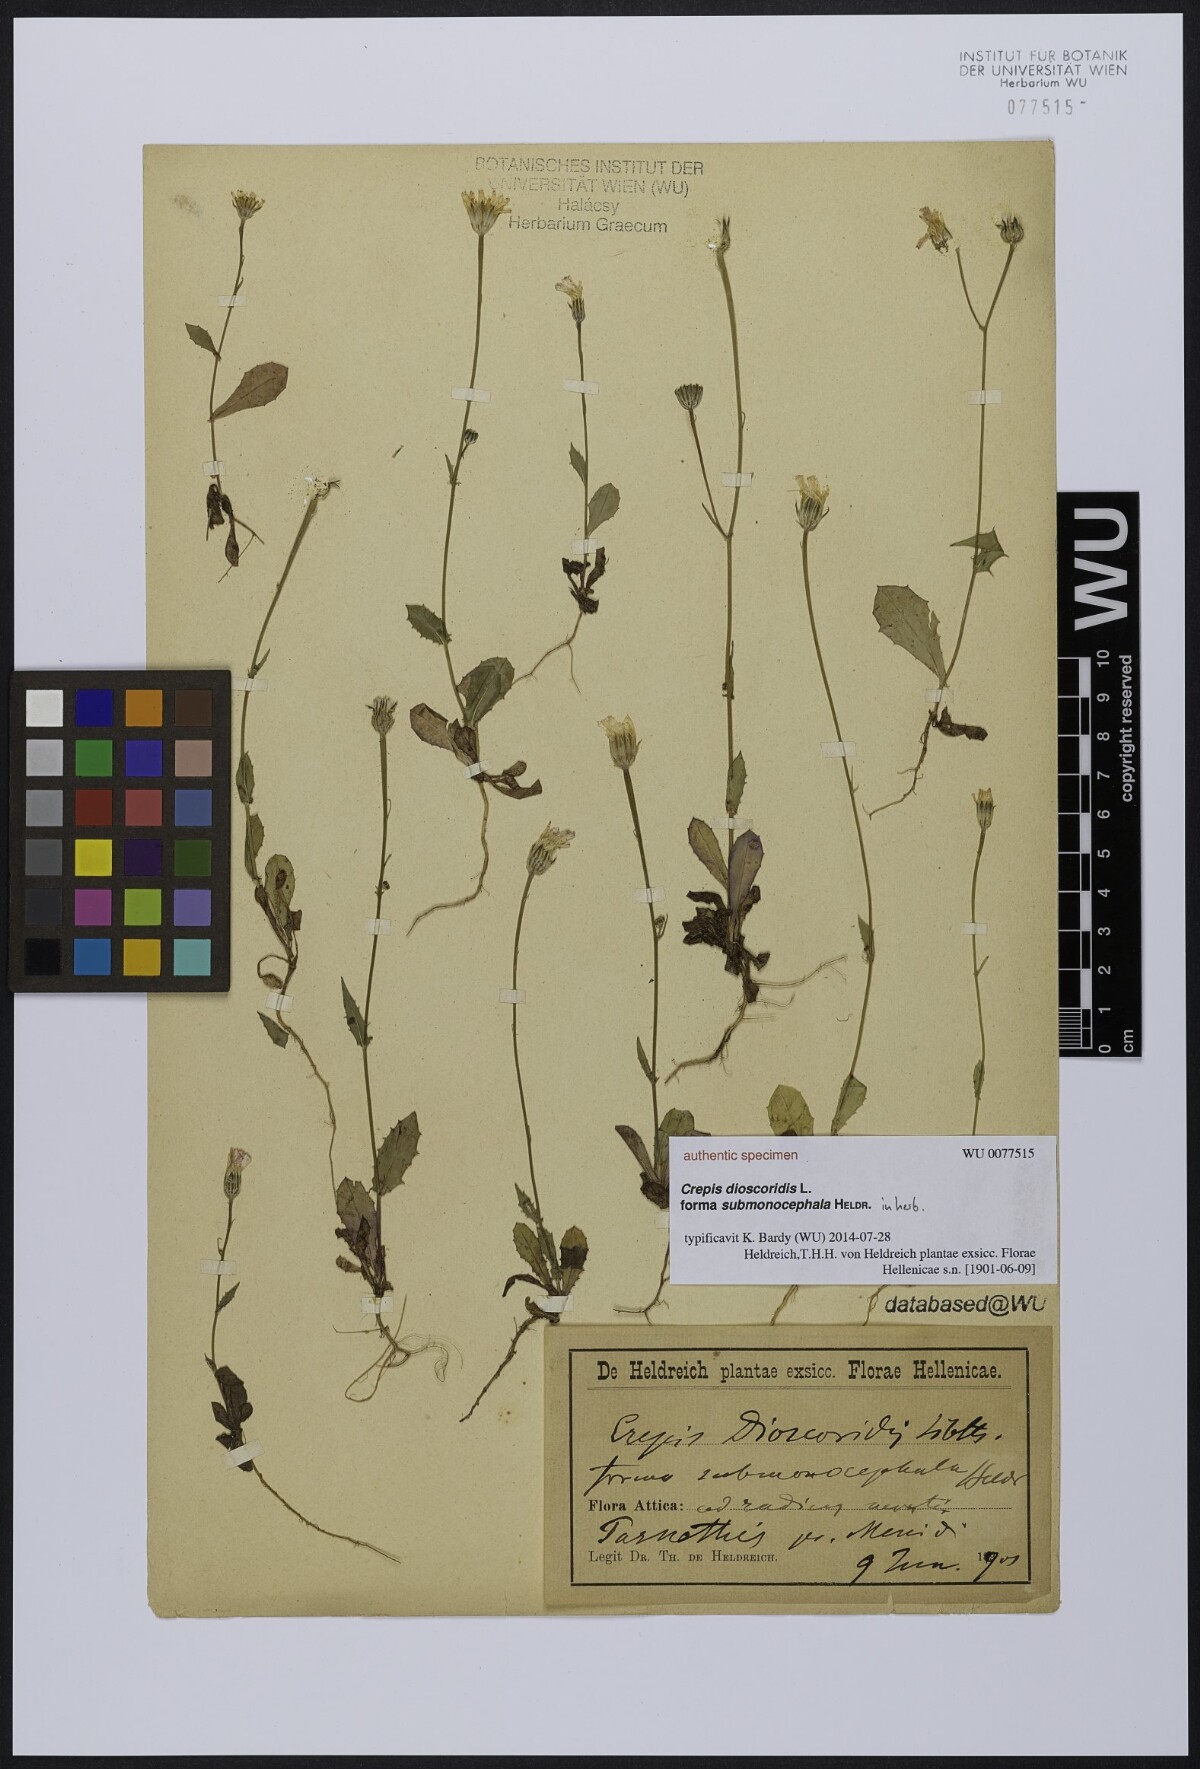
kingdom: Plantae
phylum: Tracheophyta
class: Magnoliopsida
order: Asterales
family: Asteraceae
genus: Crepis
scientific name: Crepis dioscoridis
